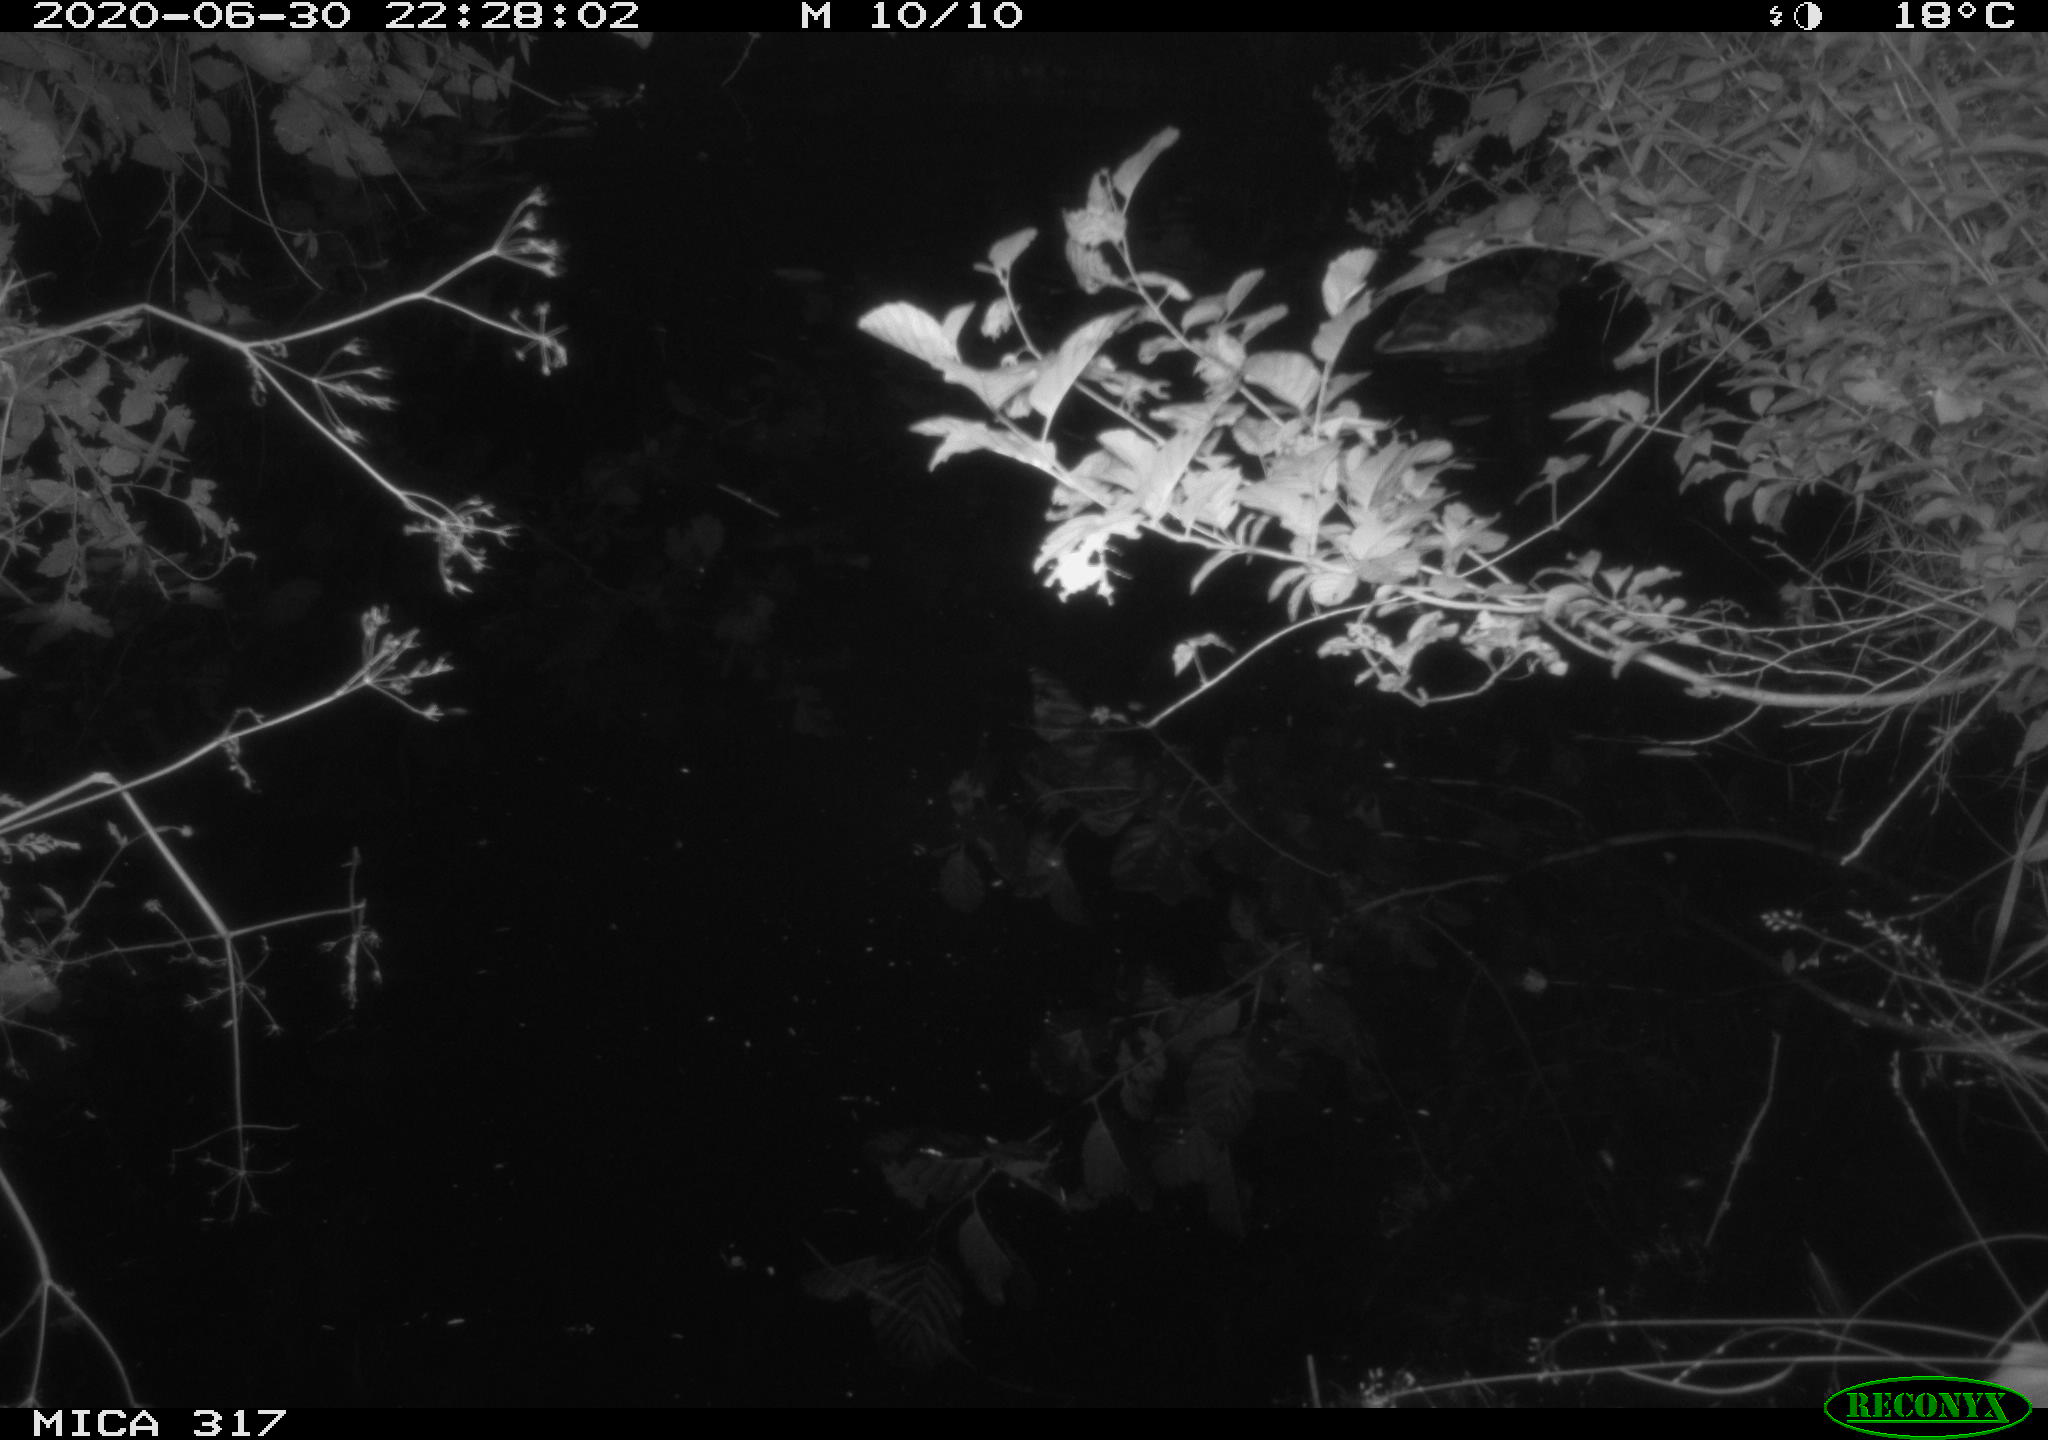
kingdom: Animalia
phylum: Chordata
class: Aves
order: Anseriformes
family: Anatidae
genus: Anas
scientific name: Anas platyrhynchos
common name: Mallard
